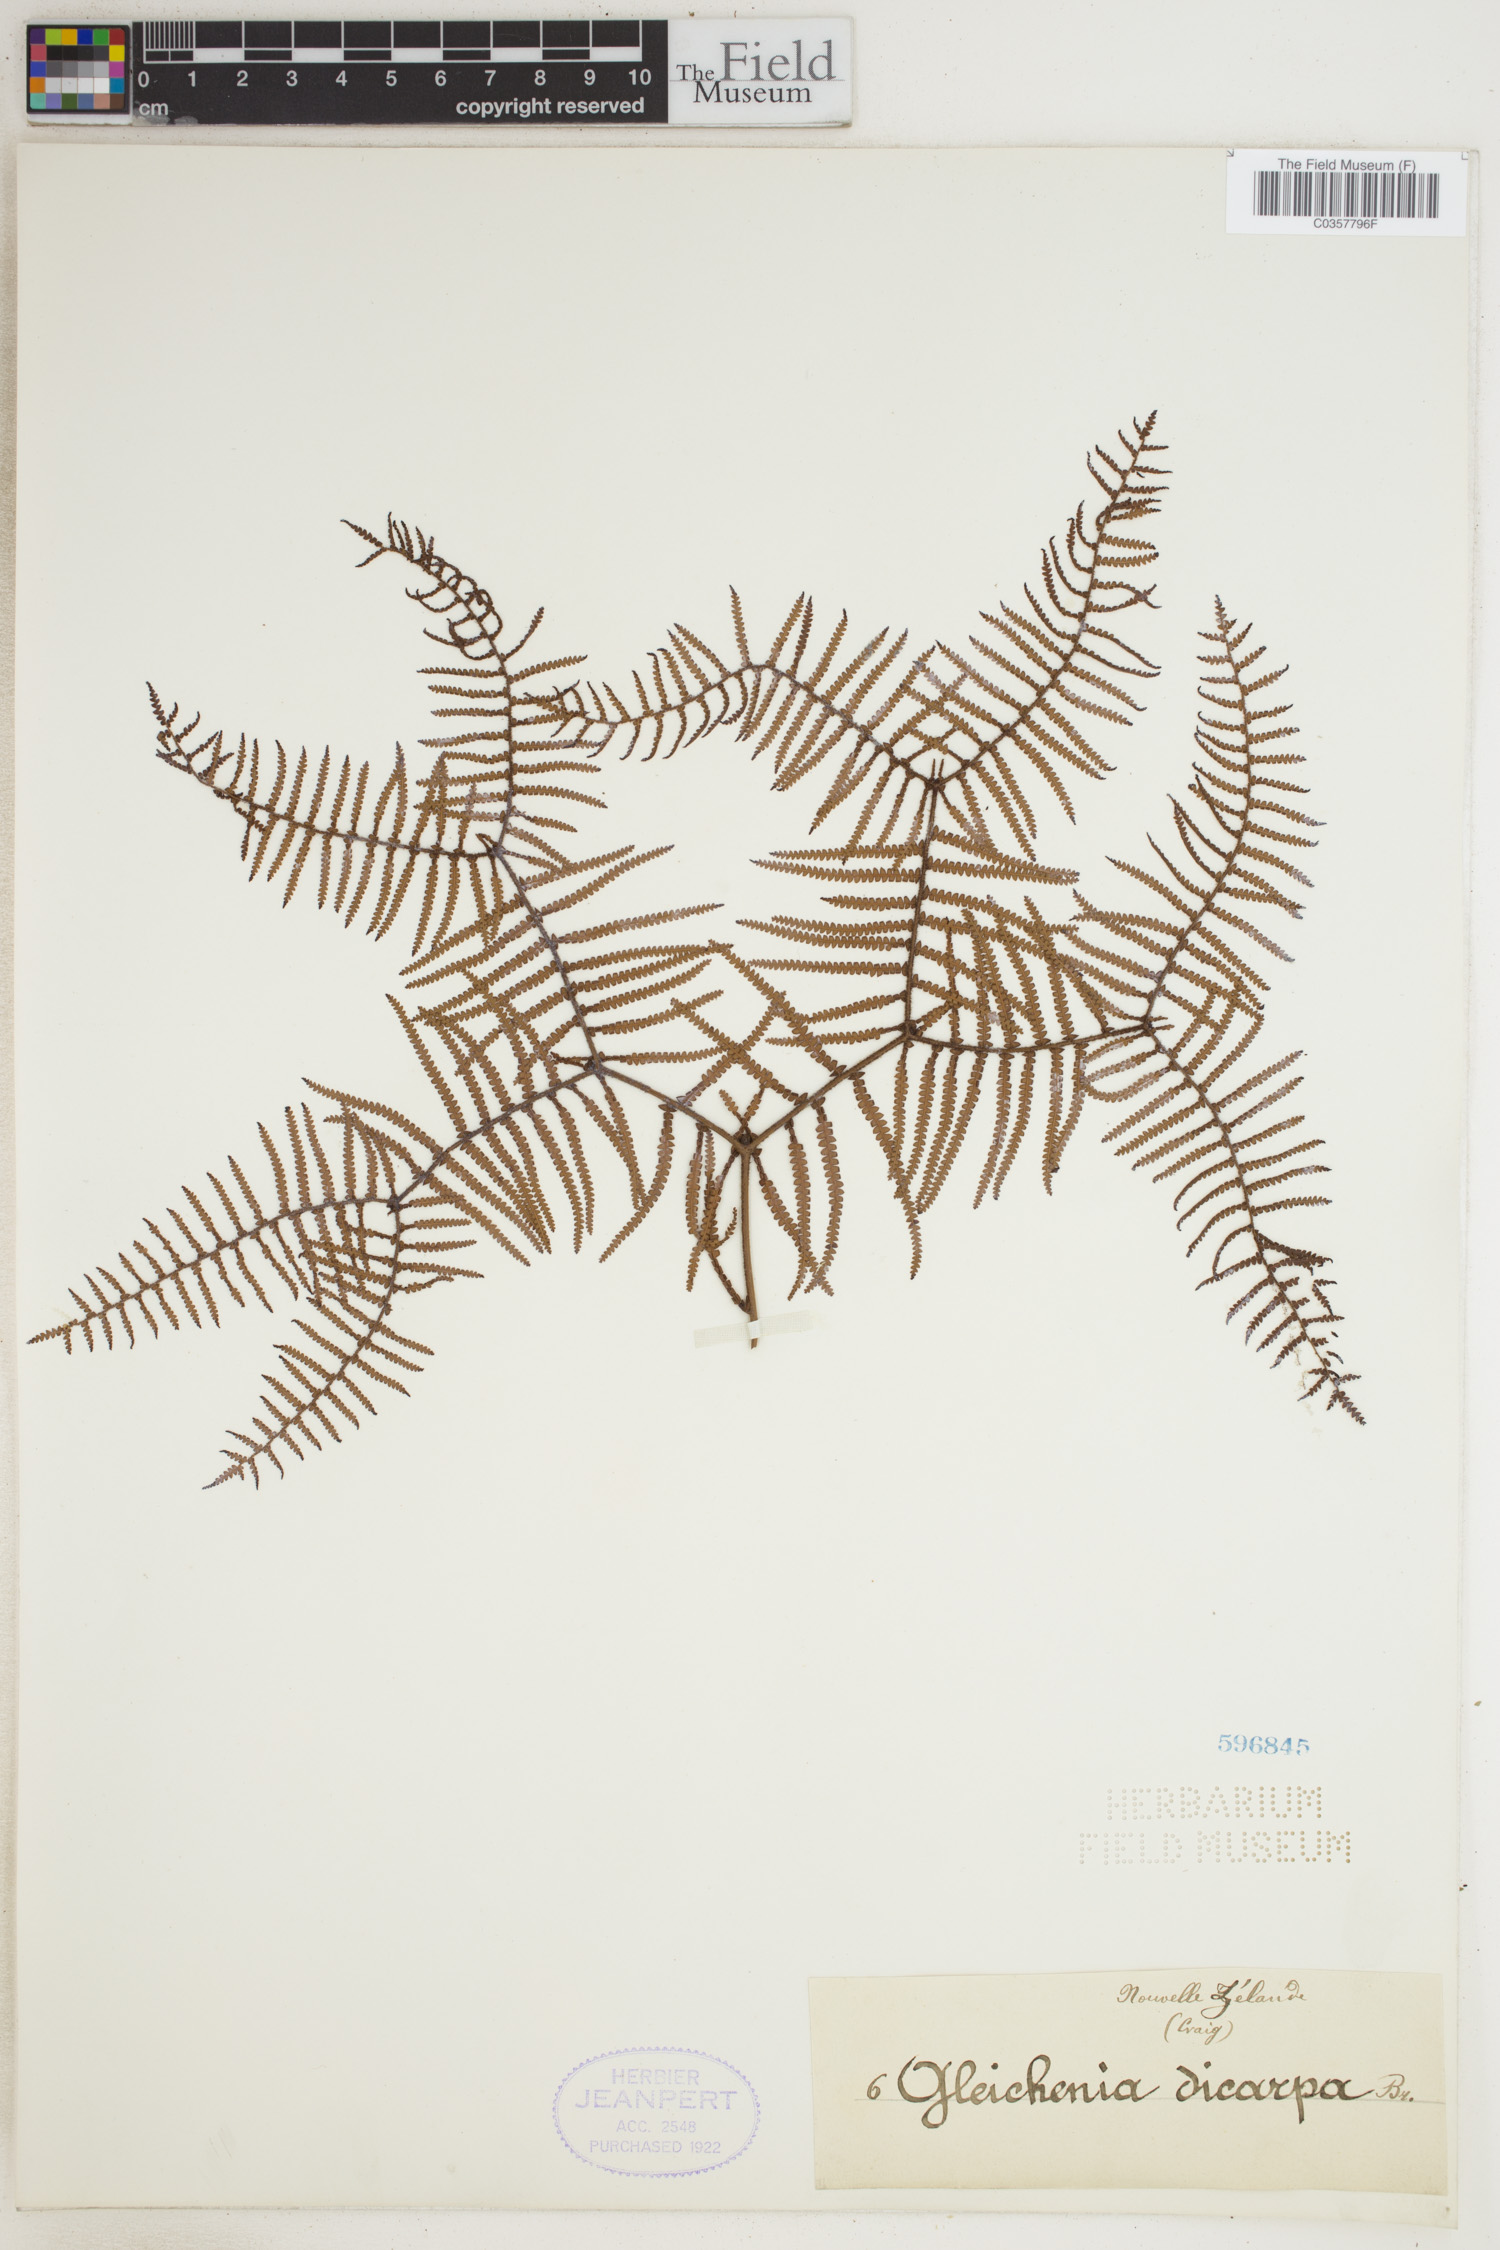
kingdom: Plantae
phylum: Tracheophyta
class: Polypodiopsida
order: Gleicheniales
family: Gleicheniaceae
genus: Gleichenia
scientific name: Gleichenia dicarpa
